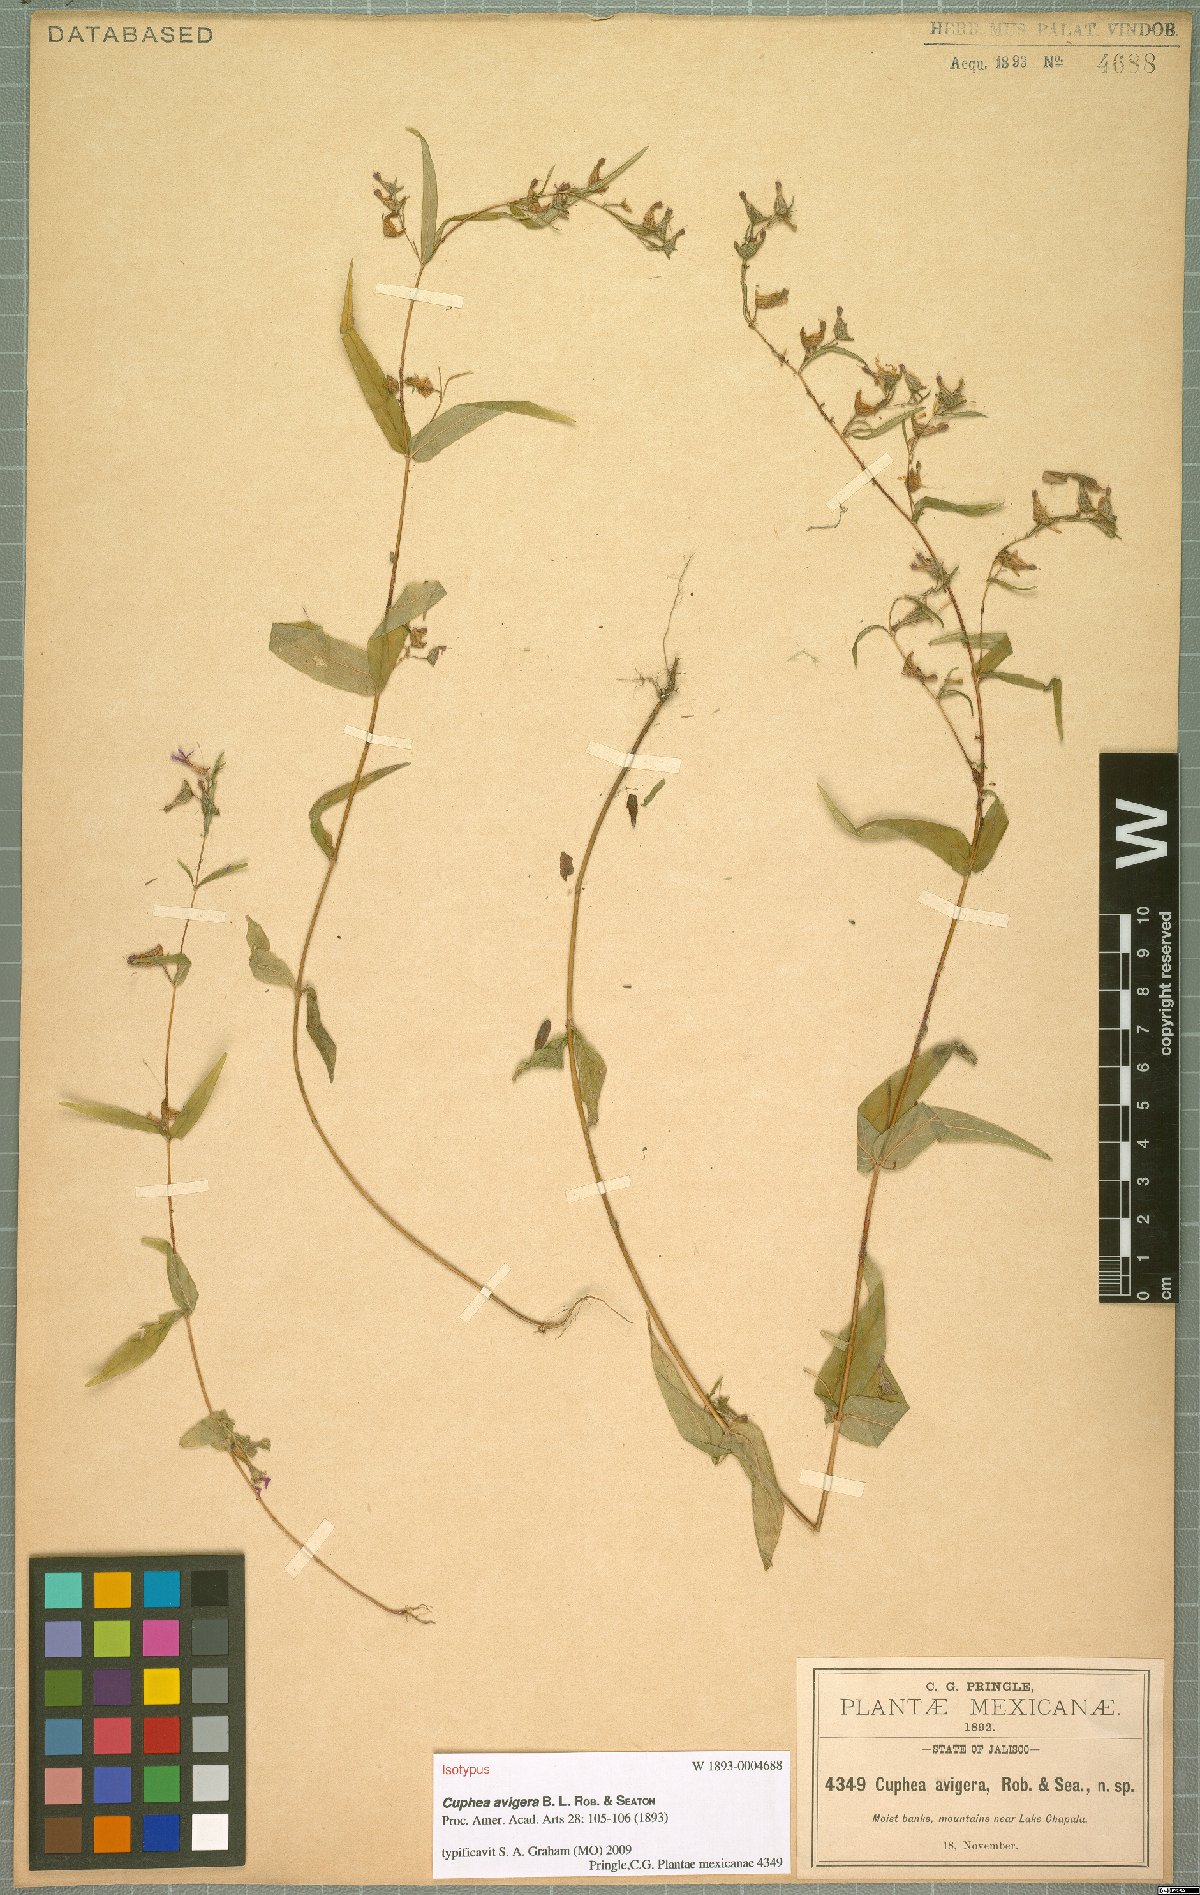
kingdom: Plantae
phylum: Tracheophyta
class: Magnoliopsida
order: Myrtales
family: Lythraceae
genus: Cuphea
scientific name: Cuphea avigera
